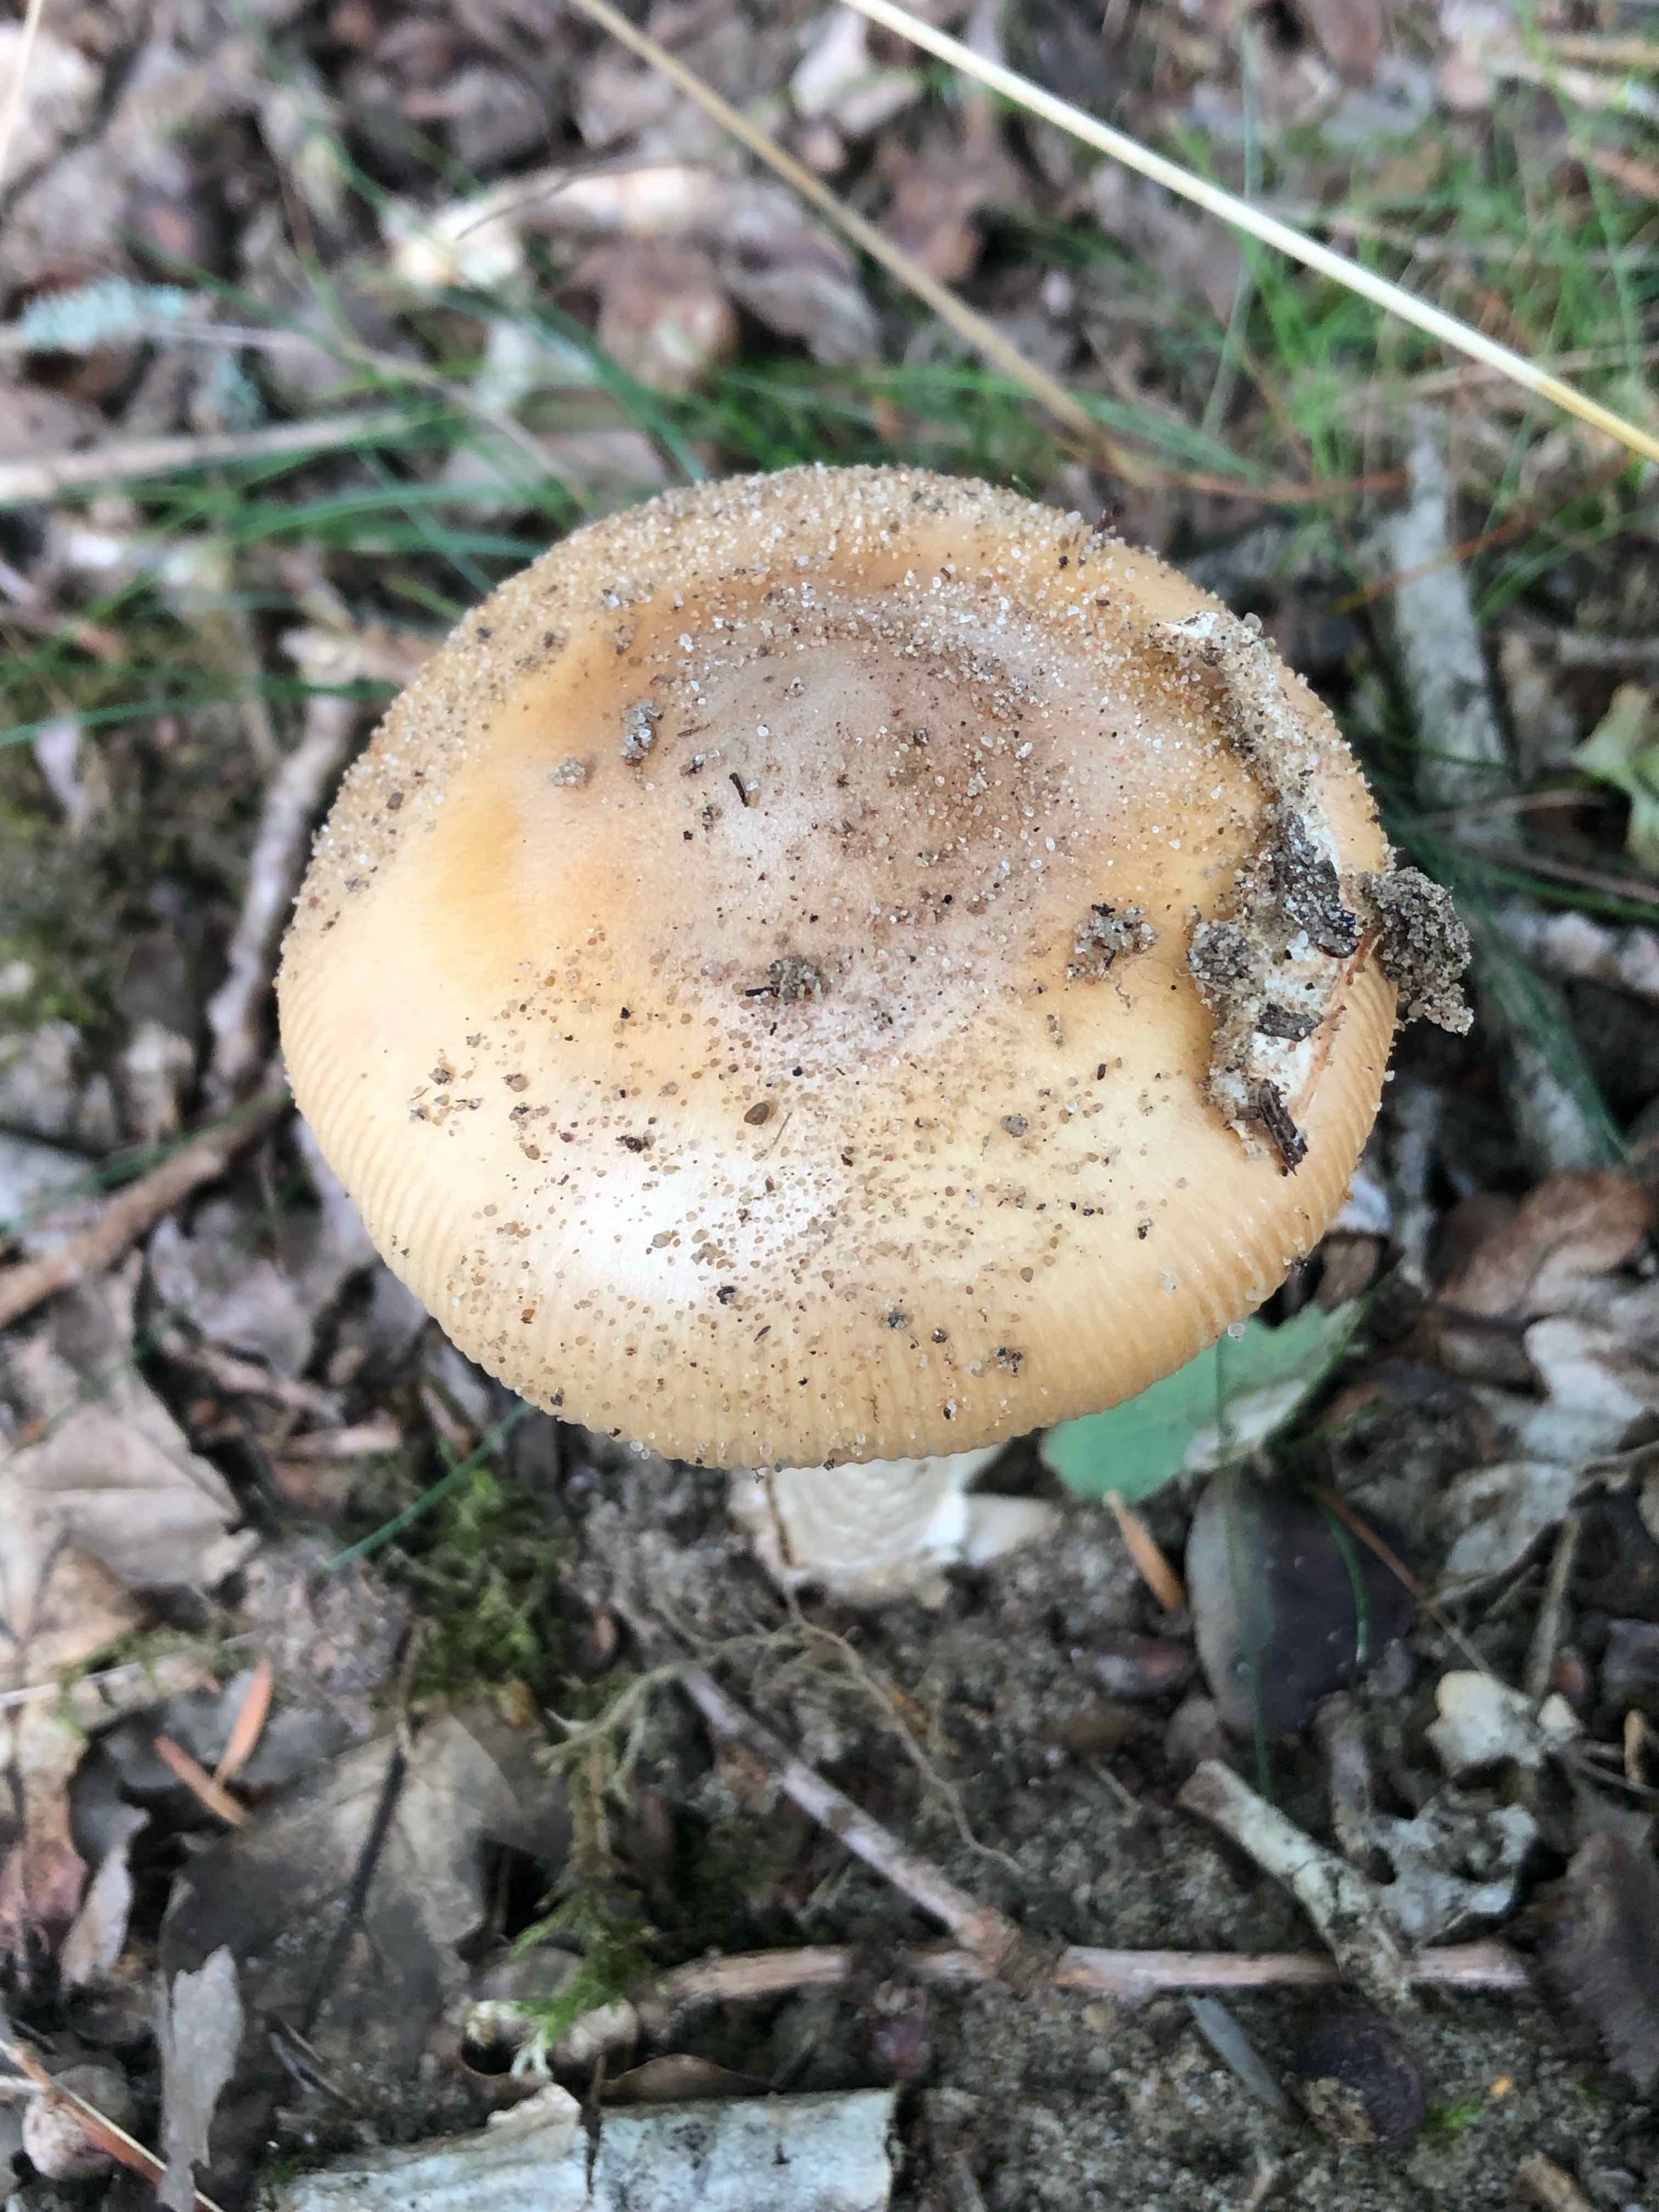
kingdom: Fungi
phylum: Basidiomycota
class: Agaricomycetes
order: Agaricales
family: Amanitaceae
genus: Amanita
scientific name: Amanita
